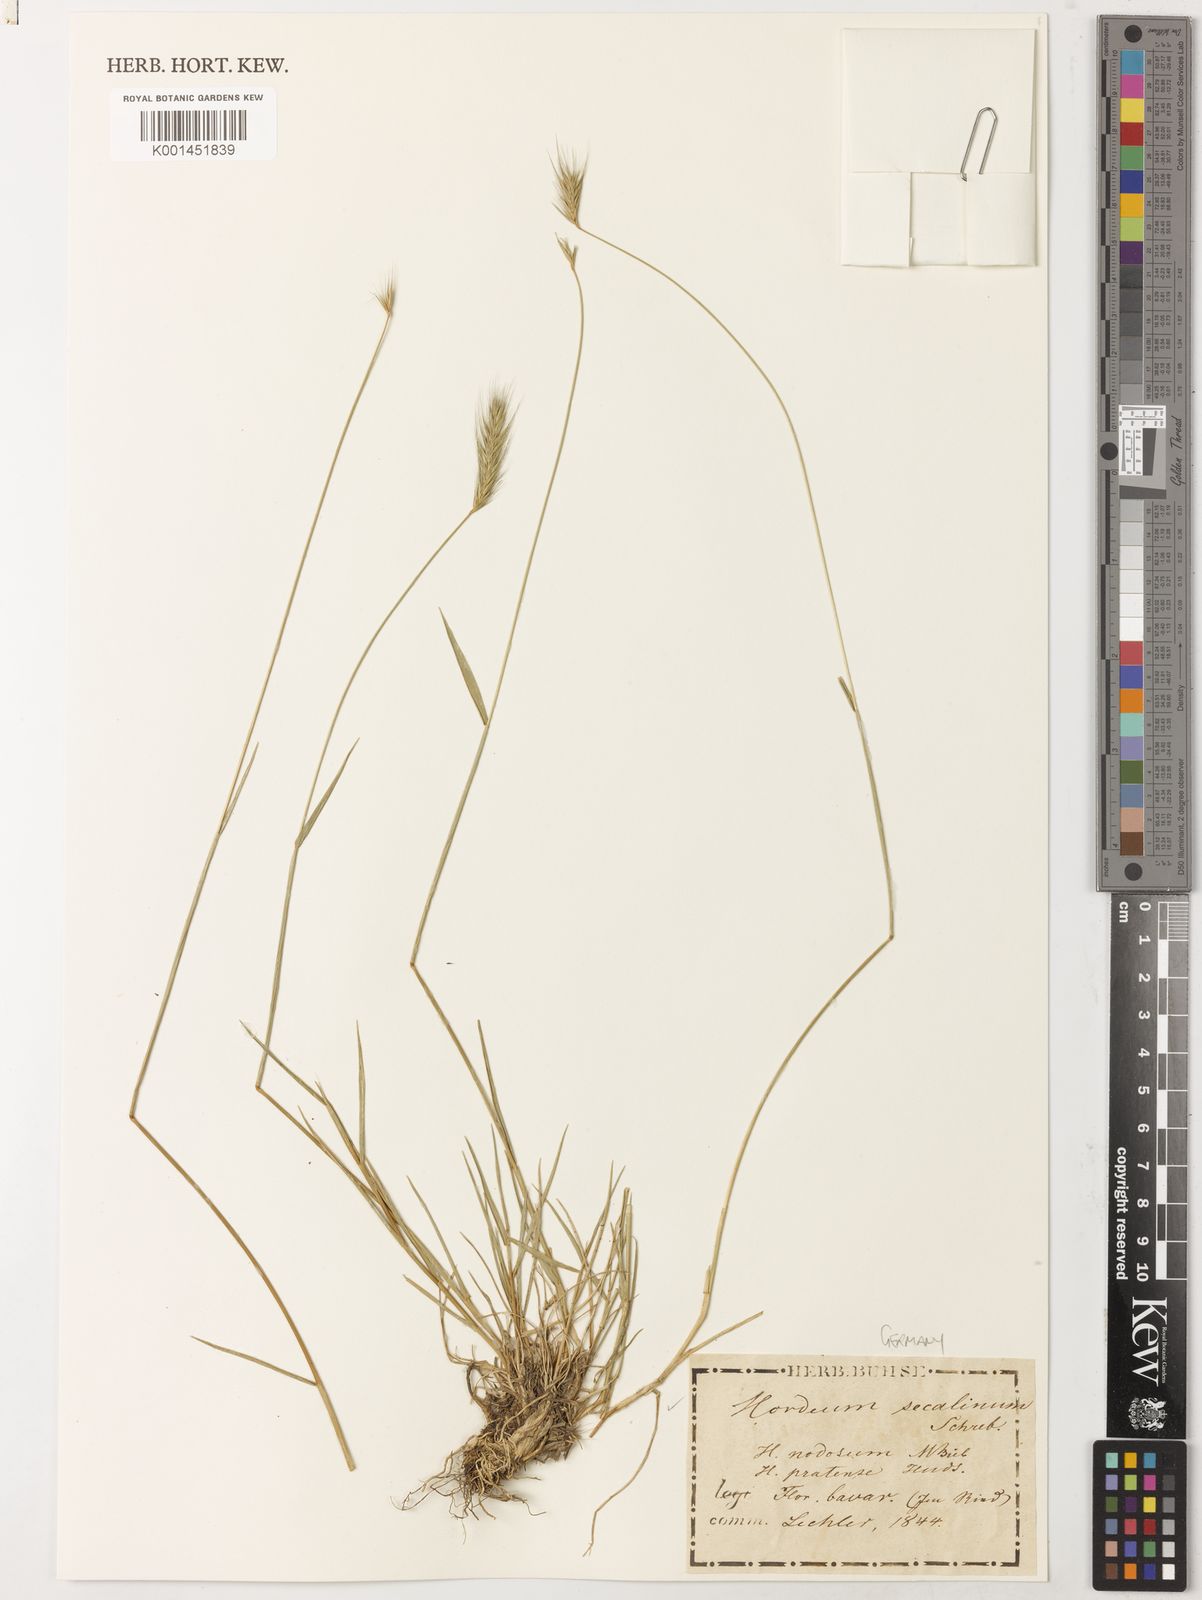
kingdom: Plantae
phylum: Tracheophyta
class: Liliopsida
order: Poales
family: Poaceae
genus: Hordeum
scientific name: Hordeum secalinum
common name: Meadow barley
